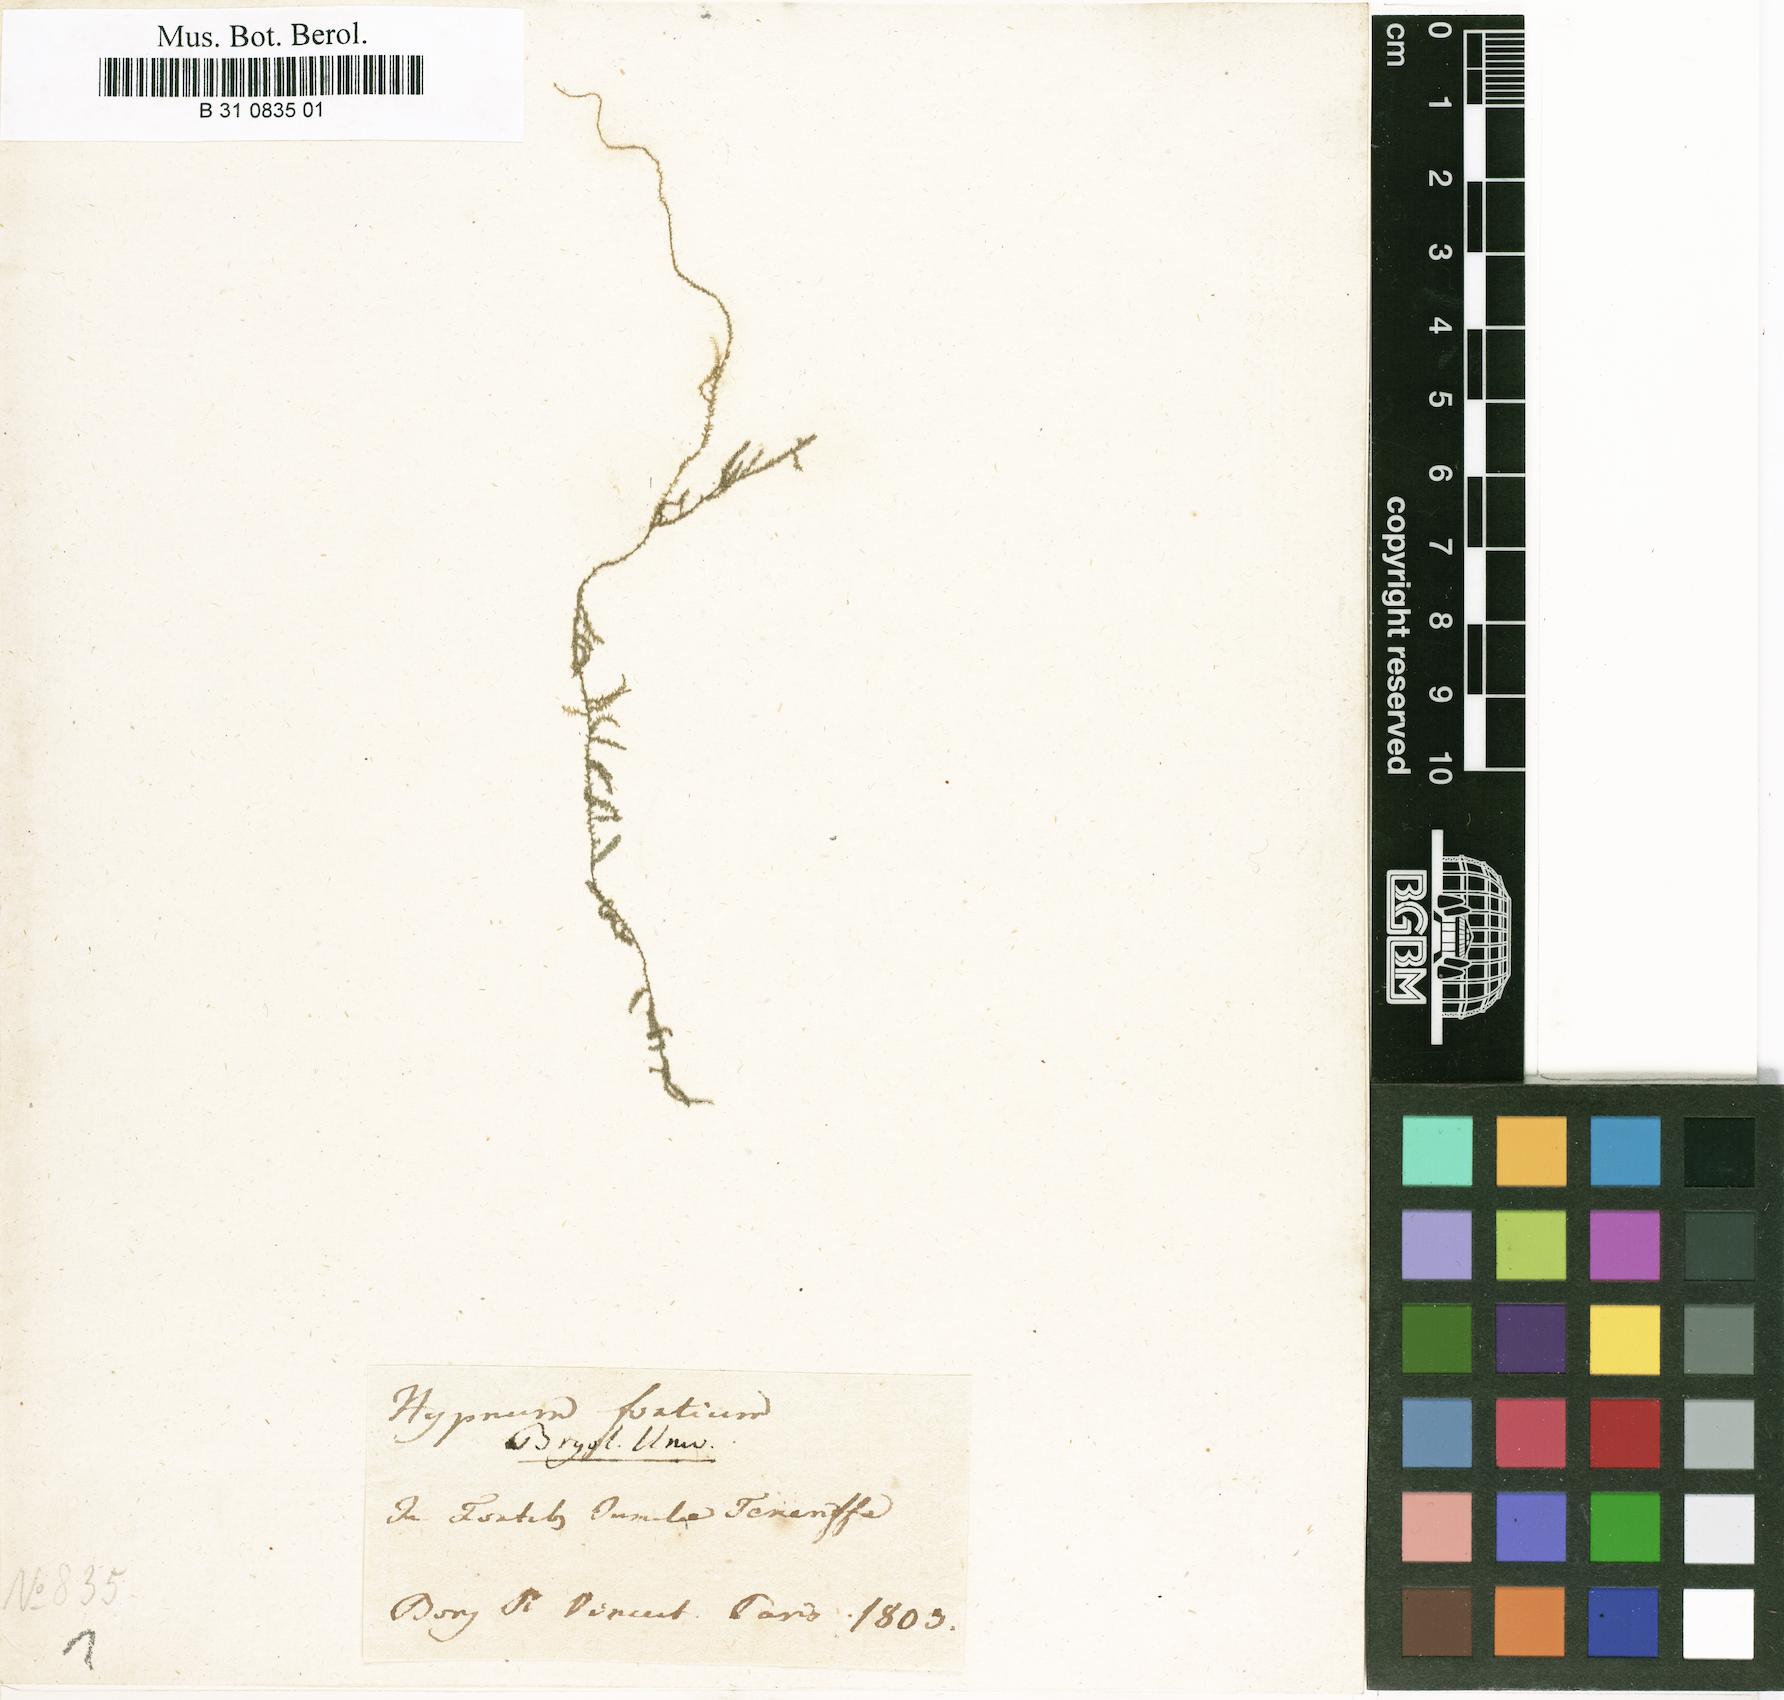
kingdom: Plantae
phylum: Bryophyta
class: Bryopsida
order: Hypnales
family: Brachytheciaceae
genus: Oxyrrhynchium
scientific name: Oxyrrhynchium speciosum
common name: Showy feather-moss
